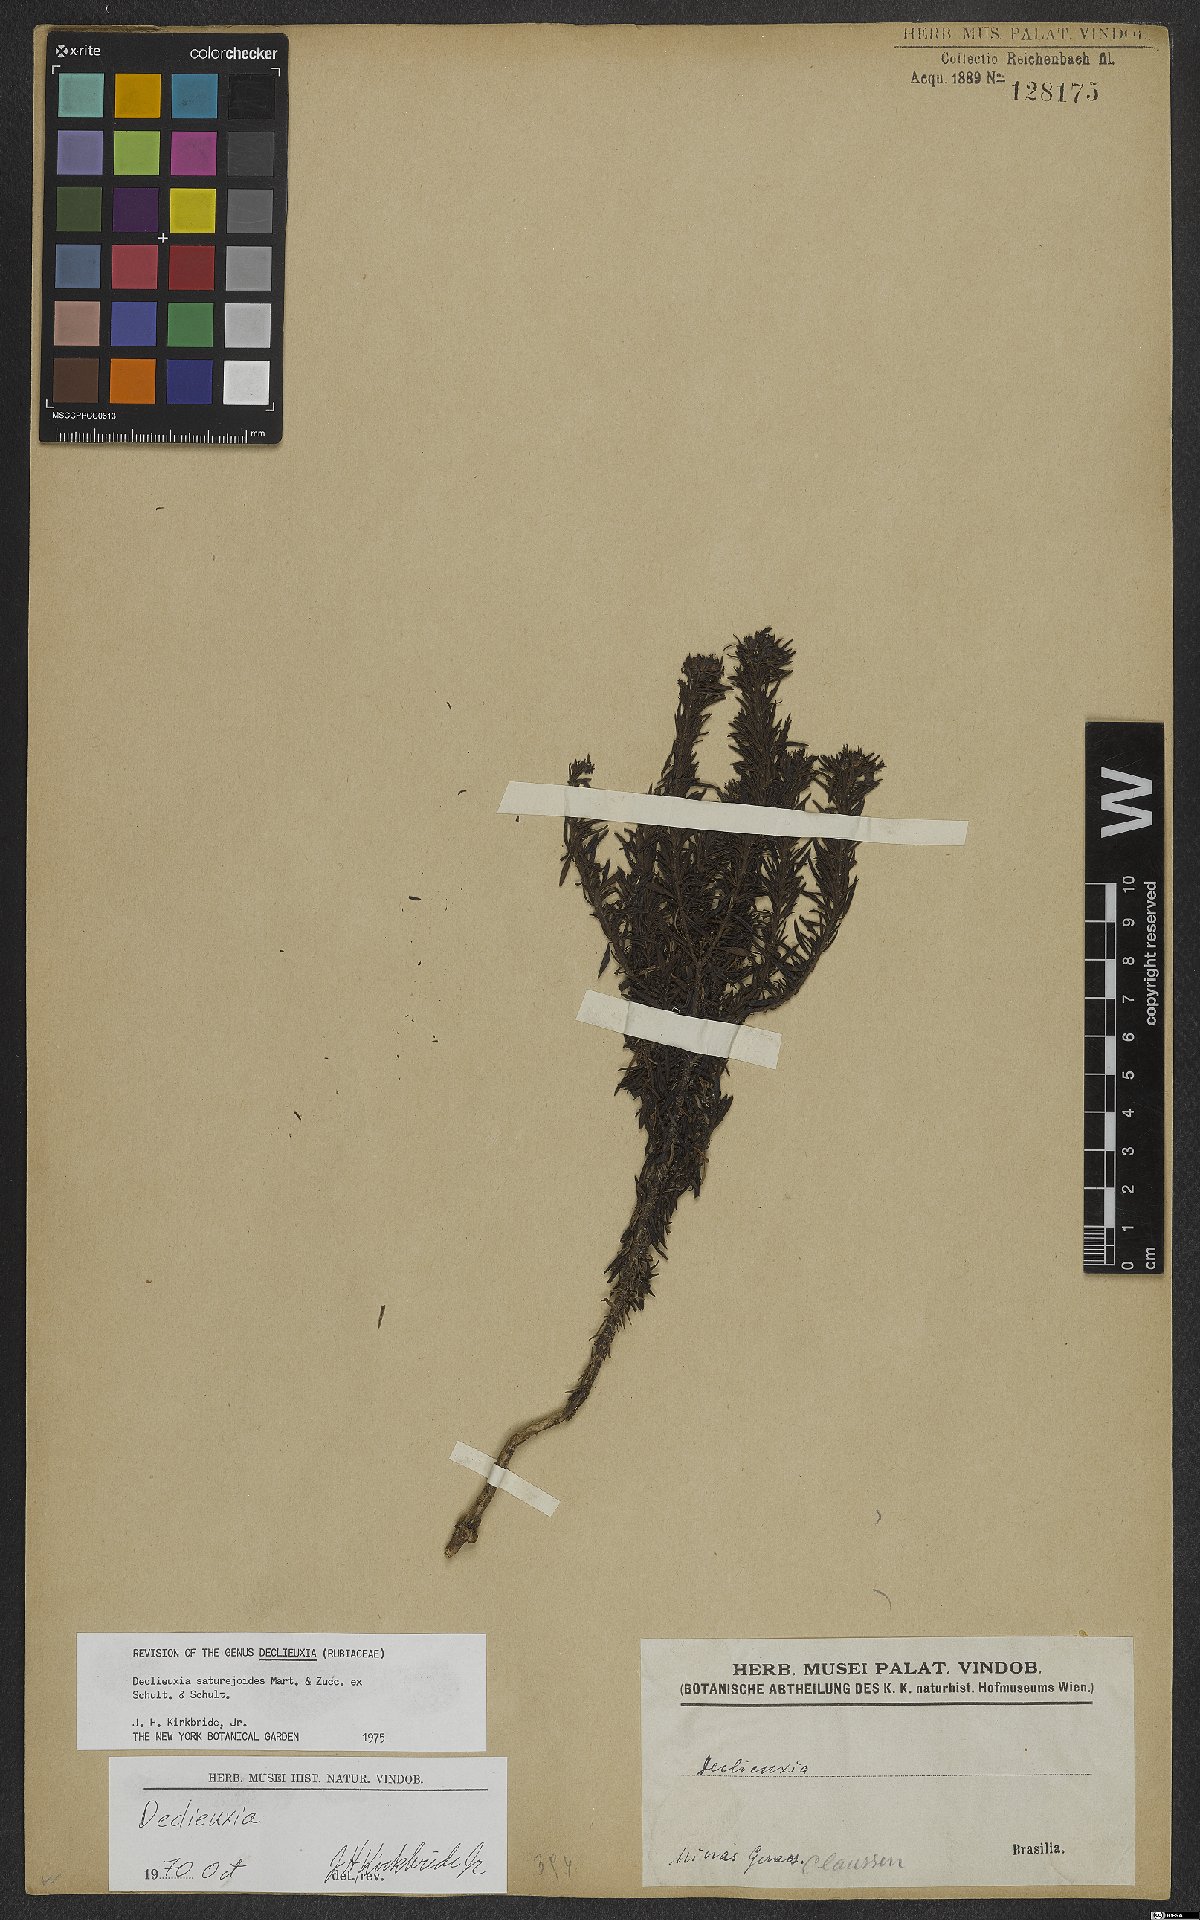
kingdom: Plantae
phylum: Tracheophyta
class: Magnoliopsida
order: Gentianales
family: Rubiaceae
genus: Declieuxia
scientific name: Declieuxia saturejoides
